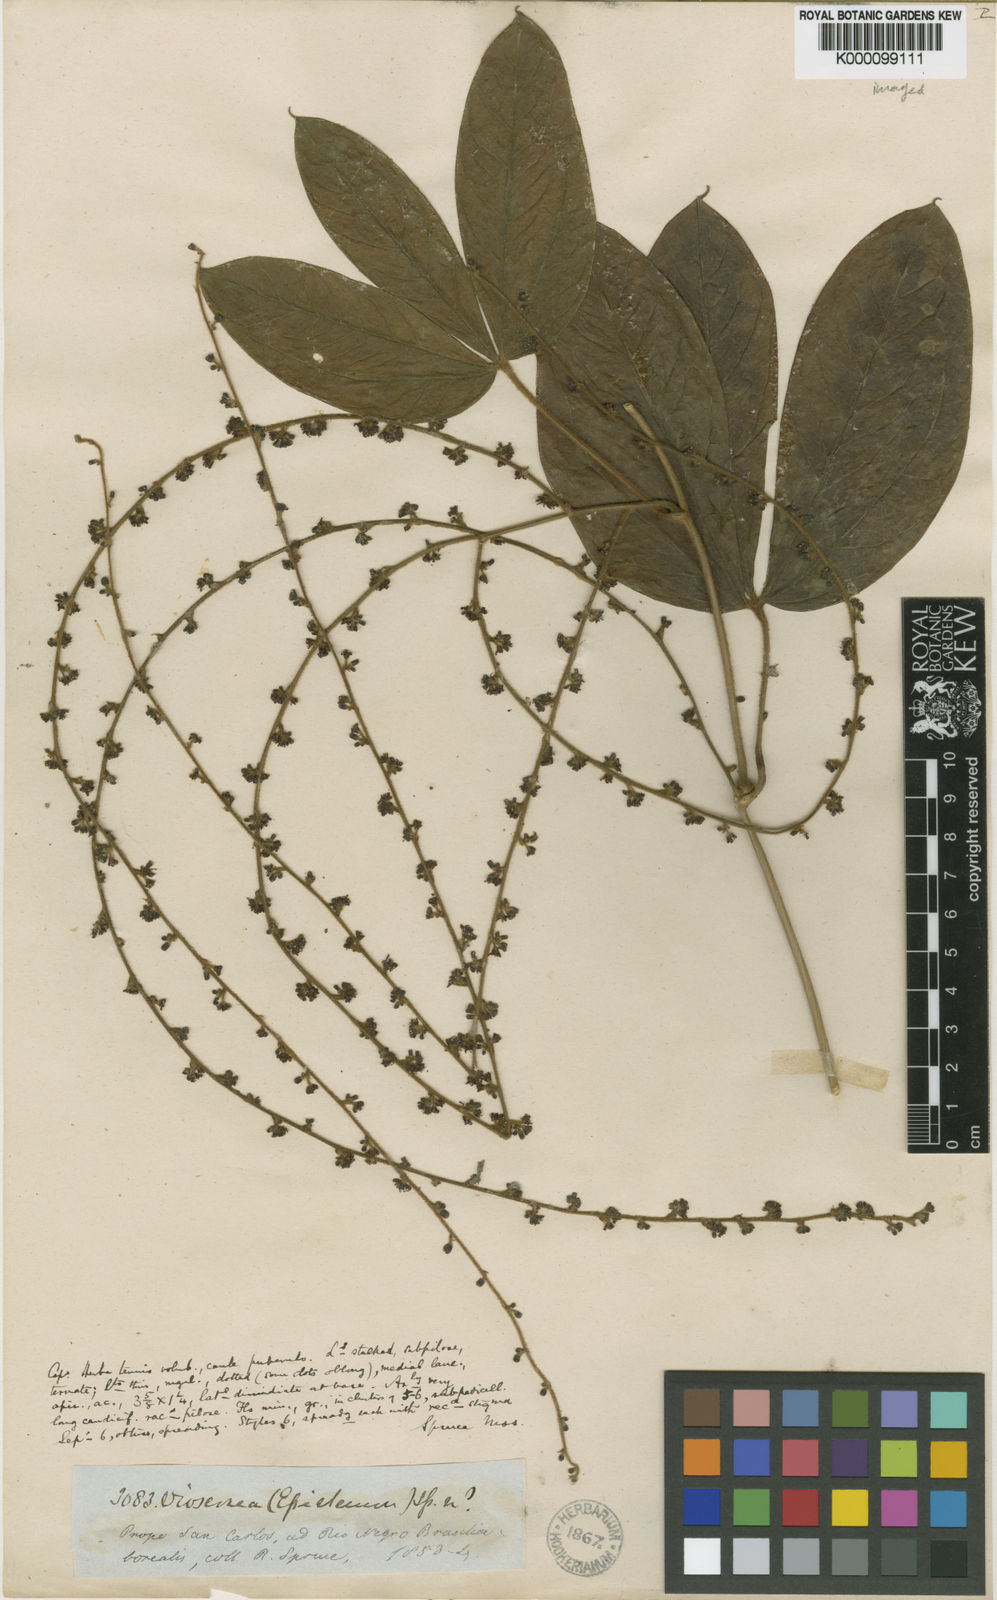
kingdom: Plantae
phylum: Tracheophyta
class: Liliopsida
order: Dioscoreales
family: Dioscoreaceae
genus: Dioscorea
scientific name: Dioscorea crotalariifolia
